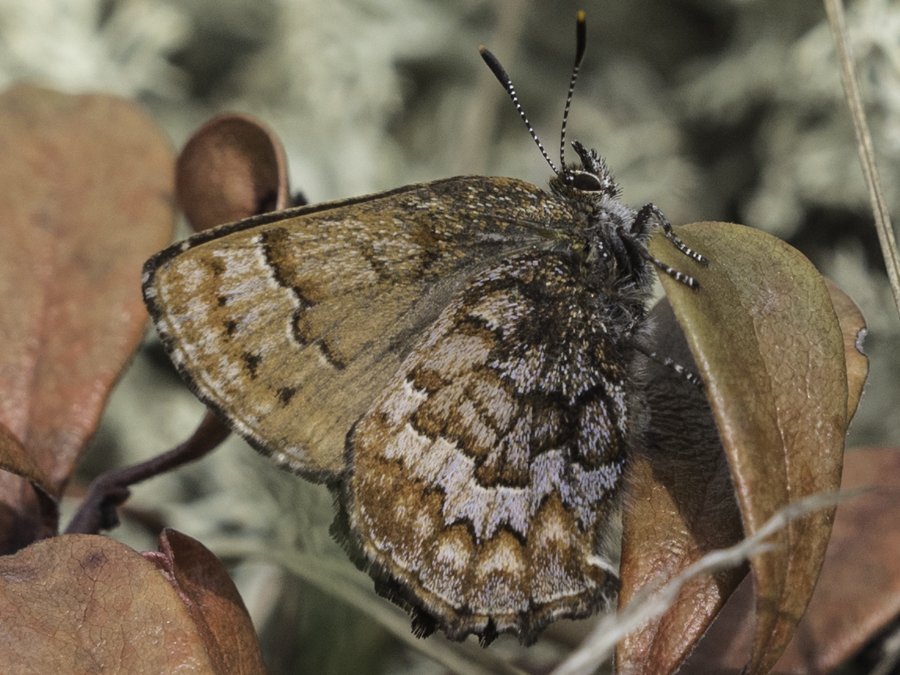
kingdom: Animalia
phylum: Arthropoda
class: Insecta
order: Lepidoptera
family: Lycaenidae
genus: Incisalia
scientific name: Incisalia niphon
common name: Eastern Pine Elfin
